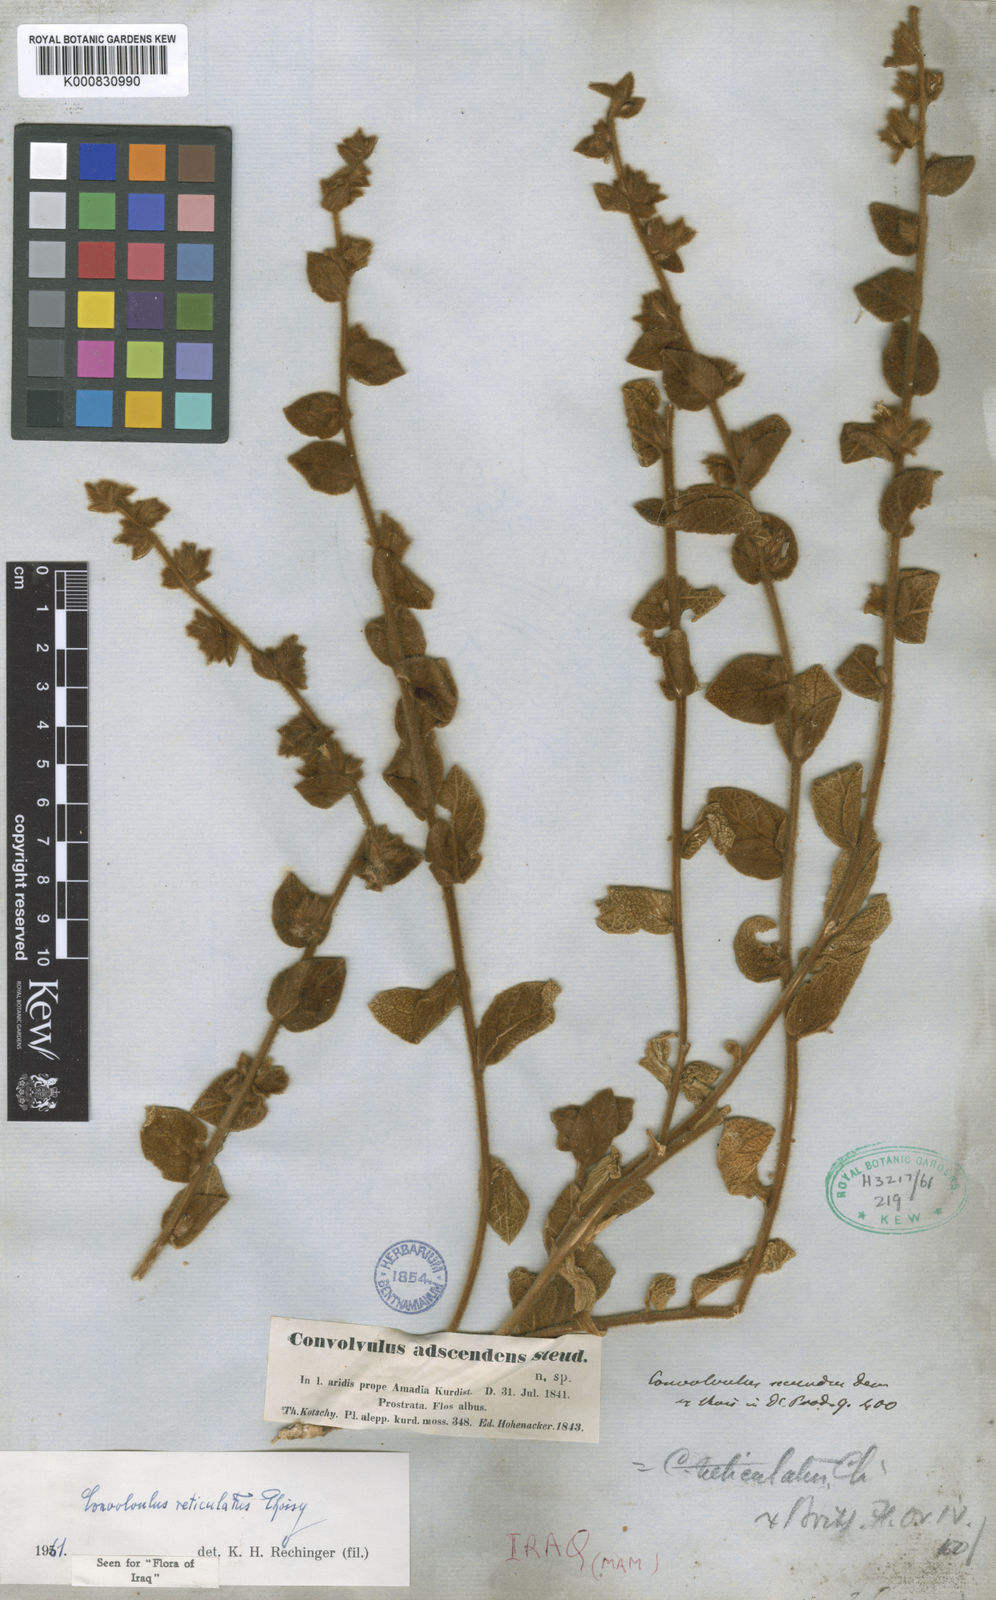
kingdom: Plantae
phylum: Tracheophyta
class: Magnoliopsida
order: Solanales
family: Convolvulaceae
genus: Convolvulus
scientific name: Convolvulus reticulatus
